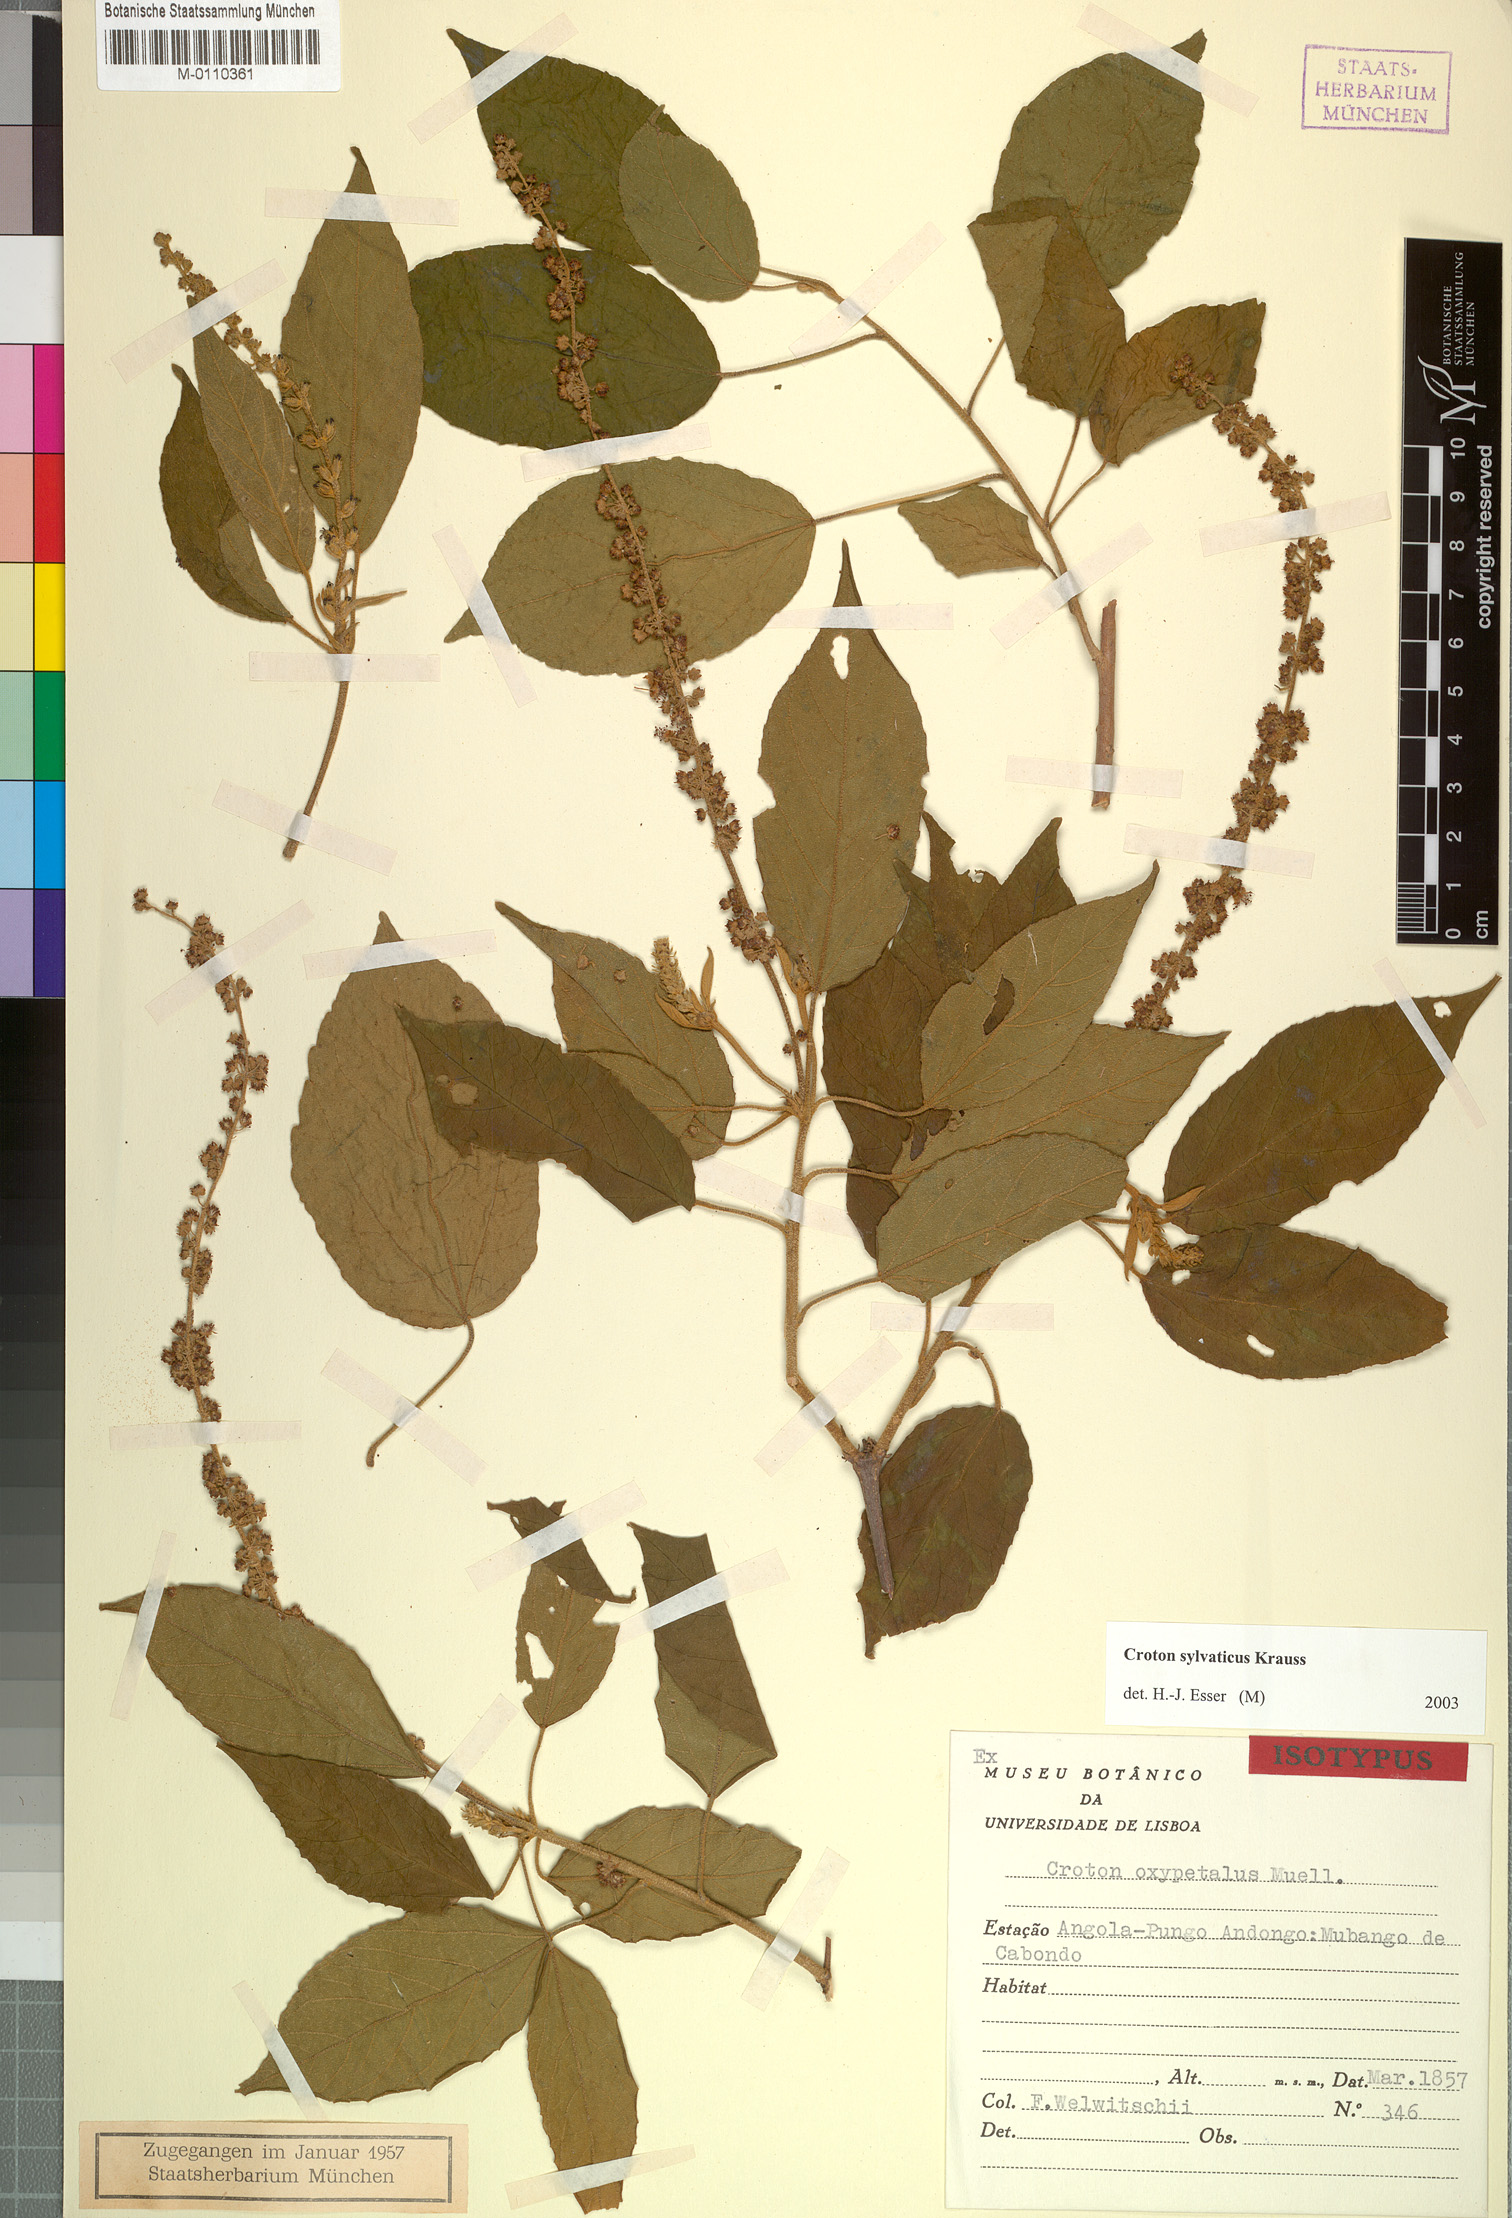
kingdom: Plantae
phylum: Tracheophyta
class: Magnoliopsida
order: Malpighiales
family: Euphorbiaceae
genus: Croton
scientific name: Croton sylvaticus
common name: Forest croton
